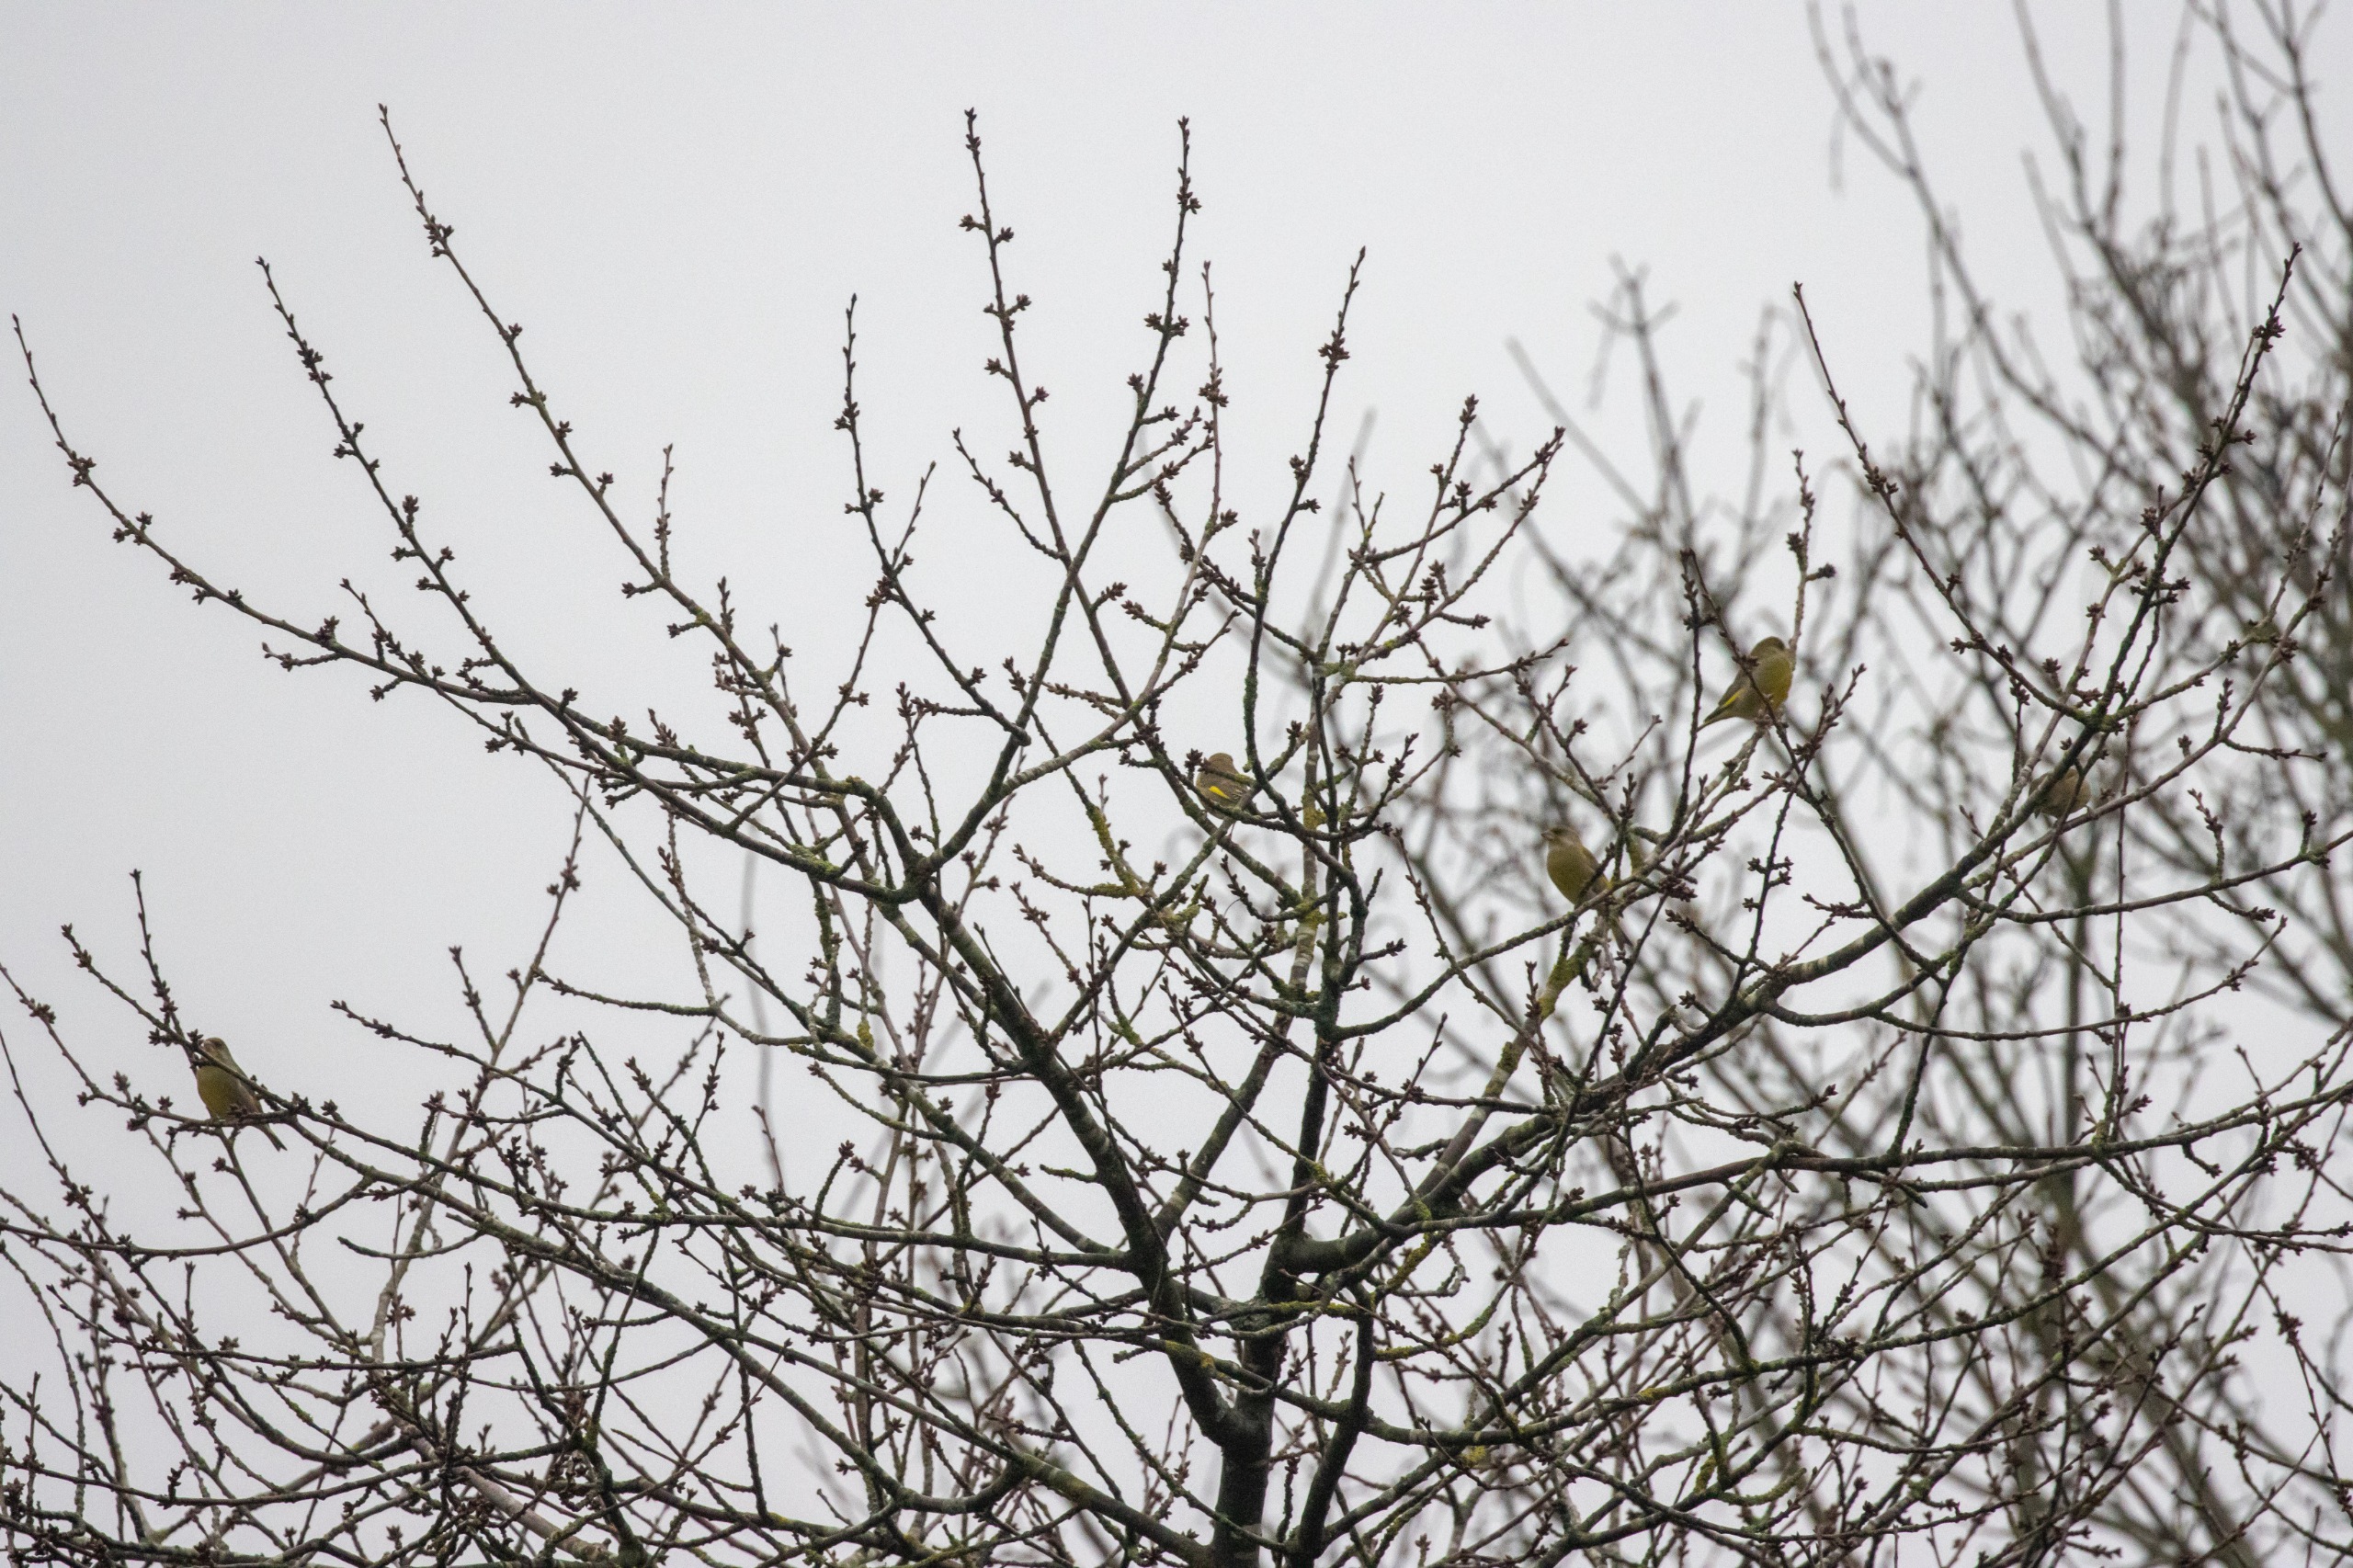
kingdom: Plantae
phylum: Tracheophyta
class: Liliopsida
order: Poales
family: Poaceae
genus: Chloris
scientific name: Chloris chloris
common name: Grønirisk
